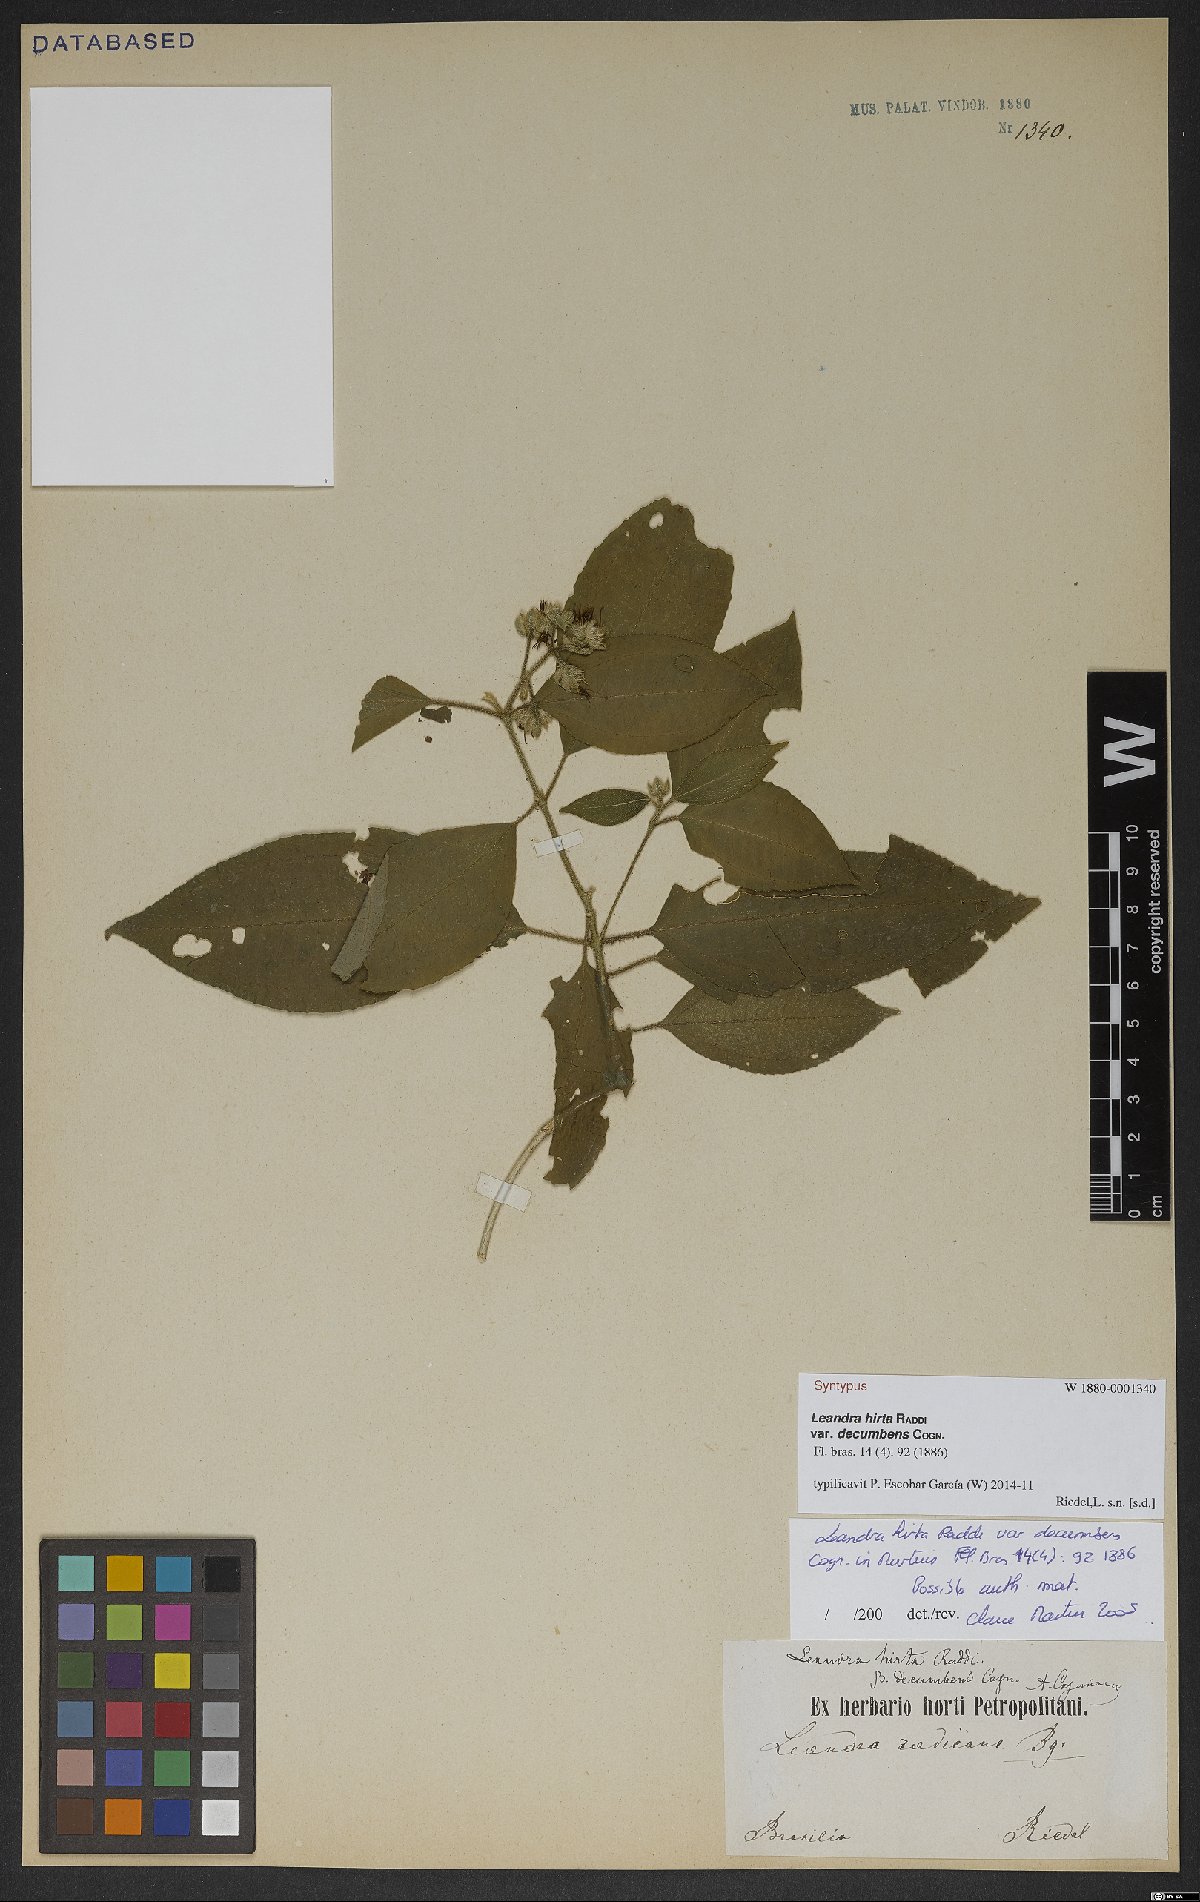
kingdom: Plantae
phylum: Tracheophyta
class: Magnoliopsida
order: Myrtales
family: Melastomataceae
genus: Miconia
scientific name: Miconia dubia
